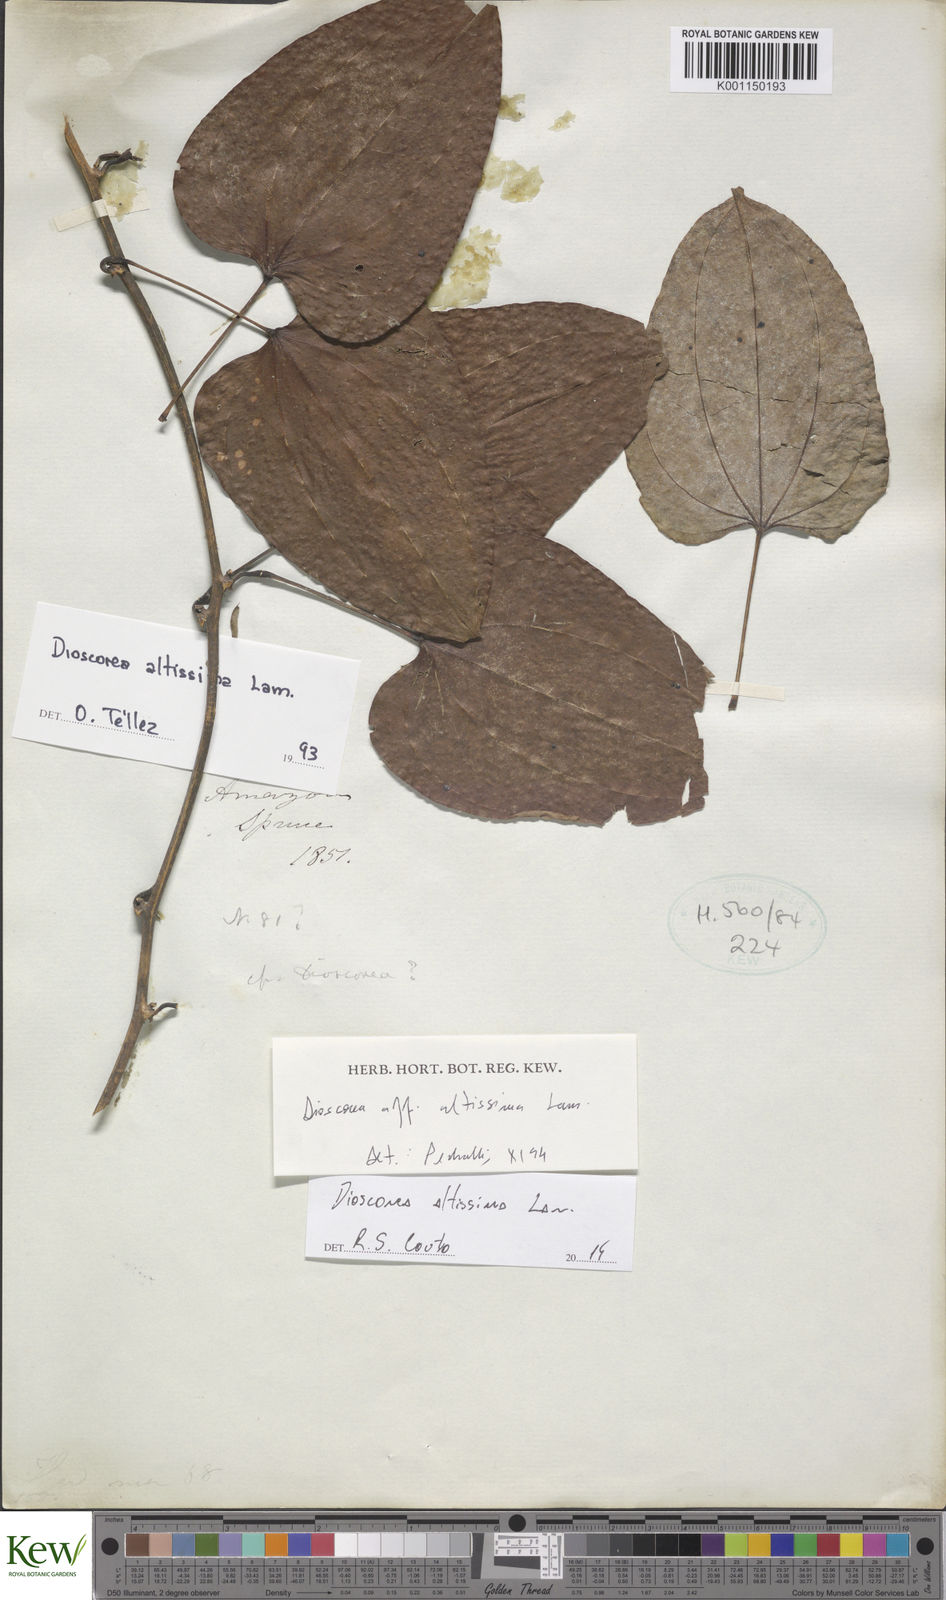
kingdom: Plantae
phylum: Tracheophyta
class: Liliopsida
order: Dioscoreales
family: Dioscoreaceae
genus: Dioscorea
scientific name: Dioscorea chondrocarpa
